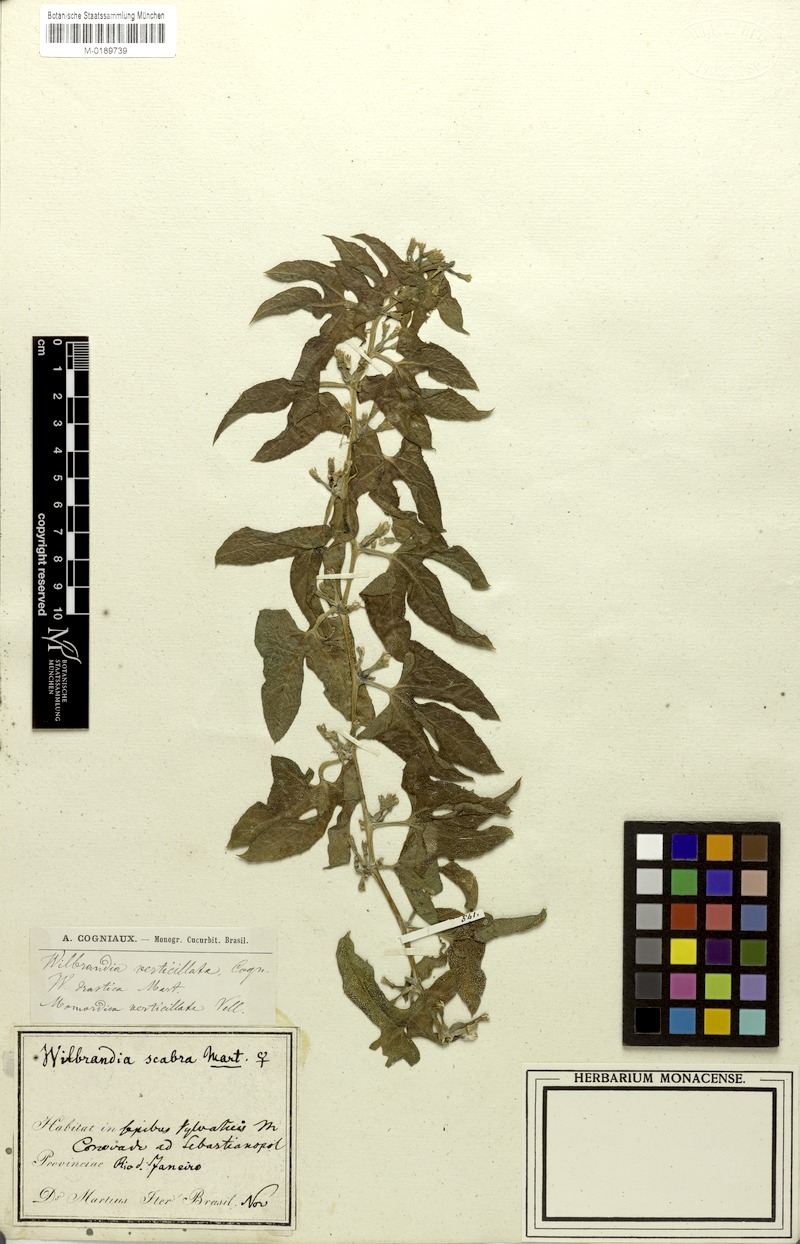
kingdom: Plantae
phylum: Tracheophyta
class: Magnoliopsida
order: Cucurbitales
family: Cucurbitaceae
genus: Wilbrandia
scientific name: Wilbrandia verticillata
